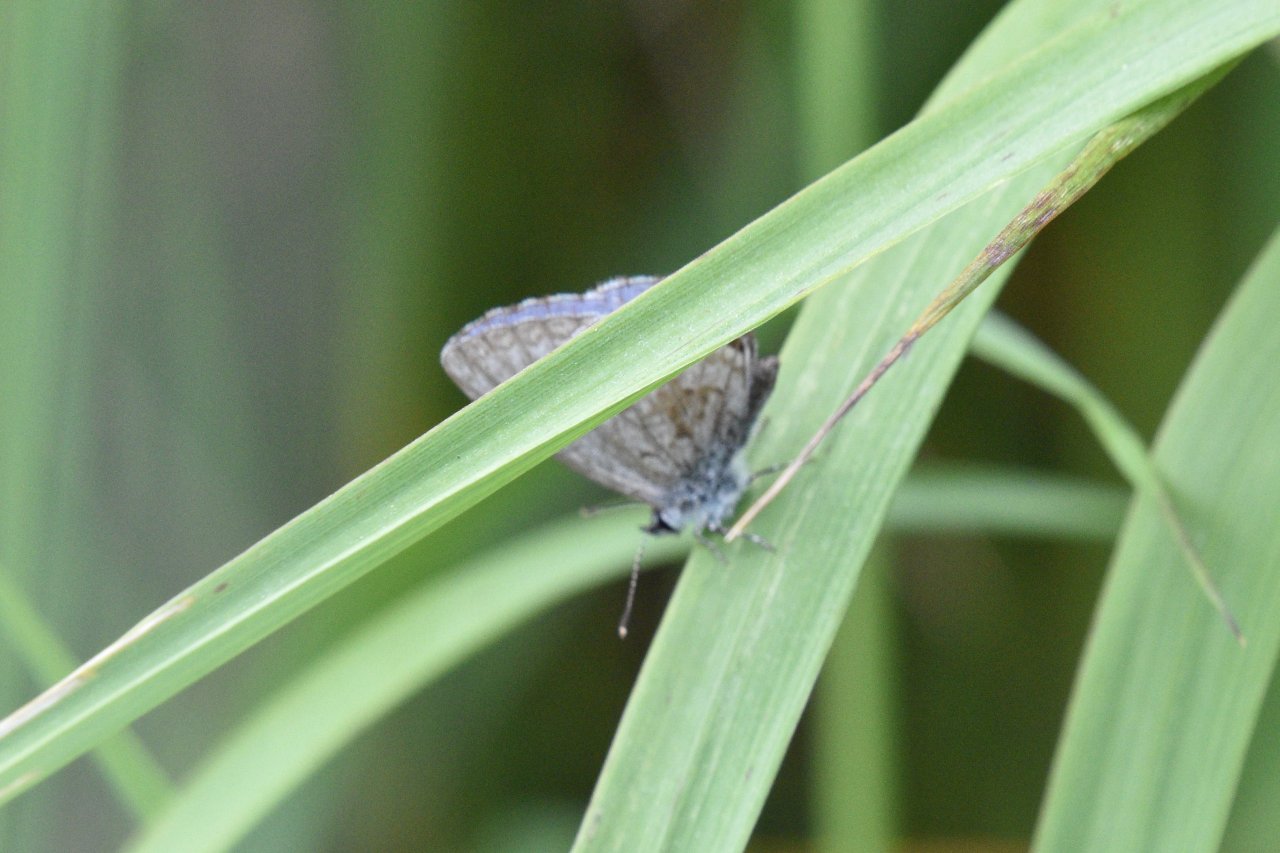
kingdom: Animalia
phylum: Arthropoda
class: Insecta
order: Lepidoptera
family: Lycaenidae
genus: Celastrina
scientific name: Celastrina lucia
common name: Northern Spring Azure
